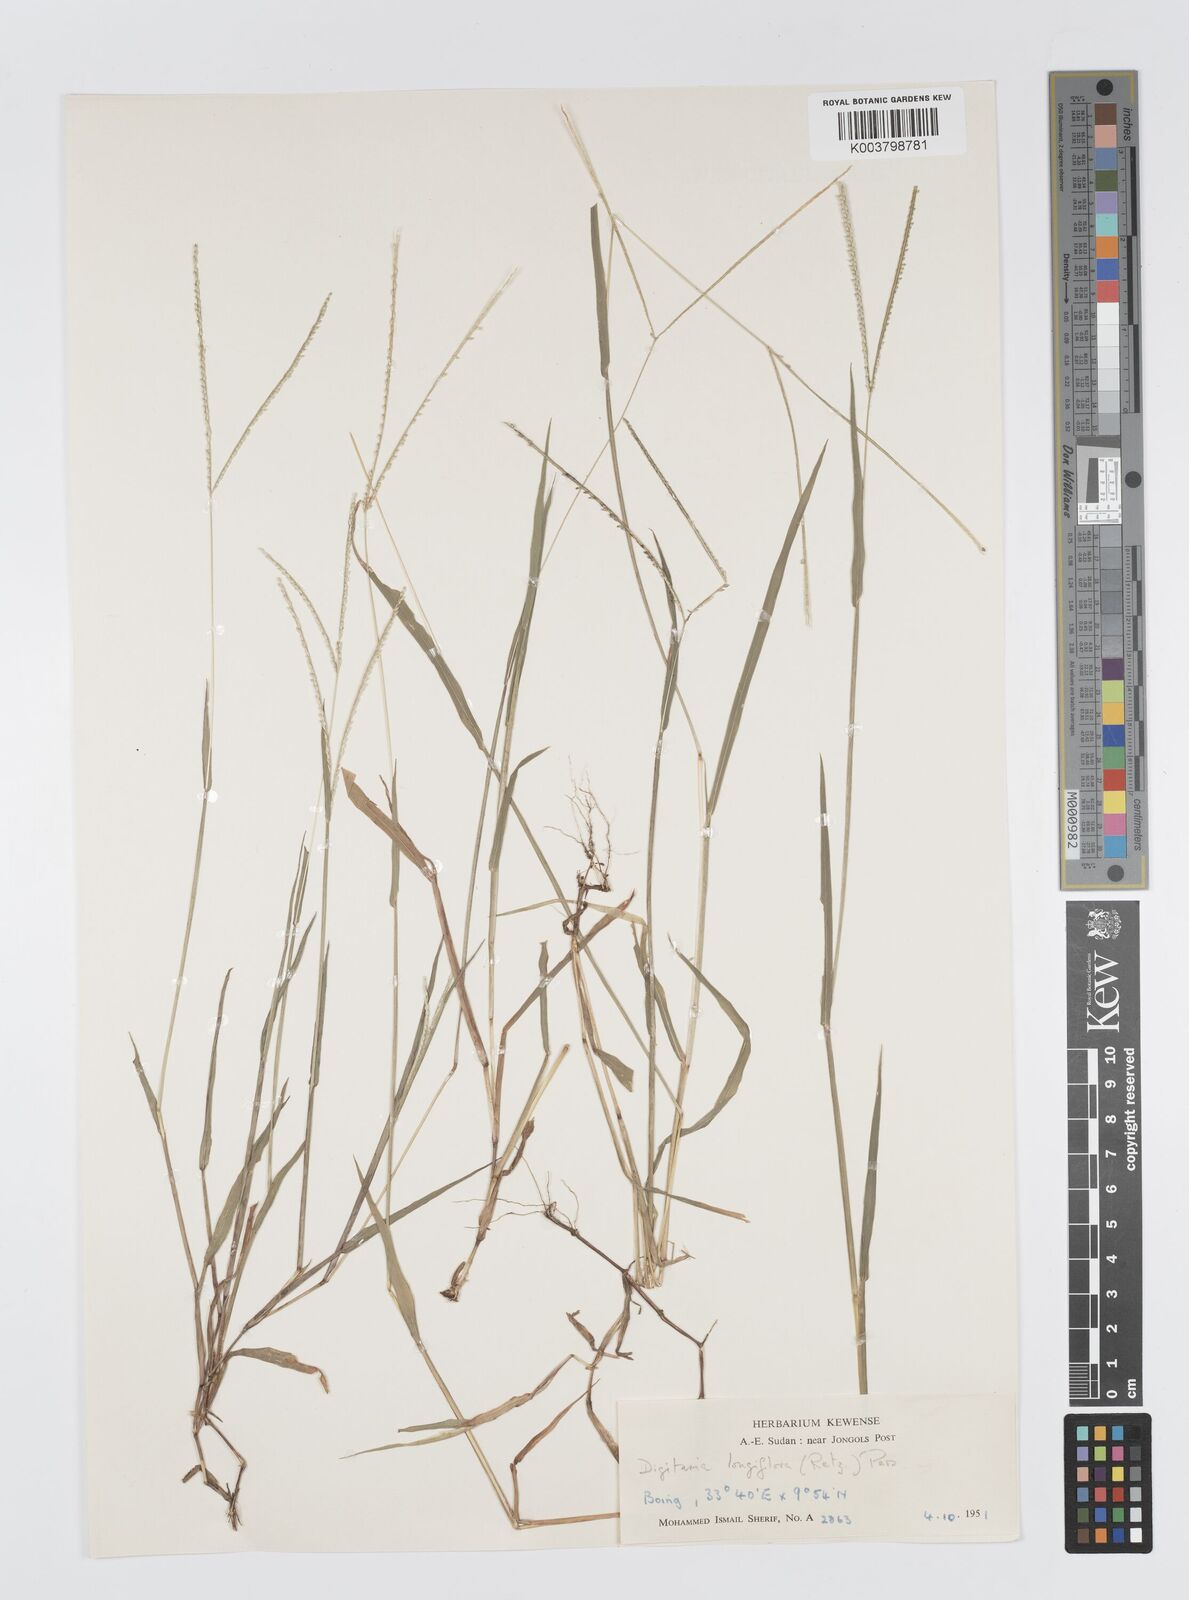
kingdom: Plantae
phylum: Tracheophyta
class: Liliopsida
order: Poales
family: Poaceae
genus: Digitaria
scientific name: Digitaria longiflora
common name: Wire crabgrass
